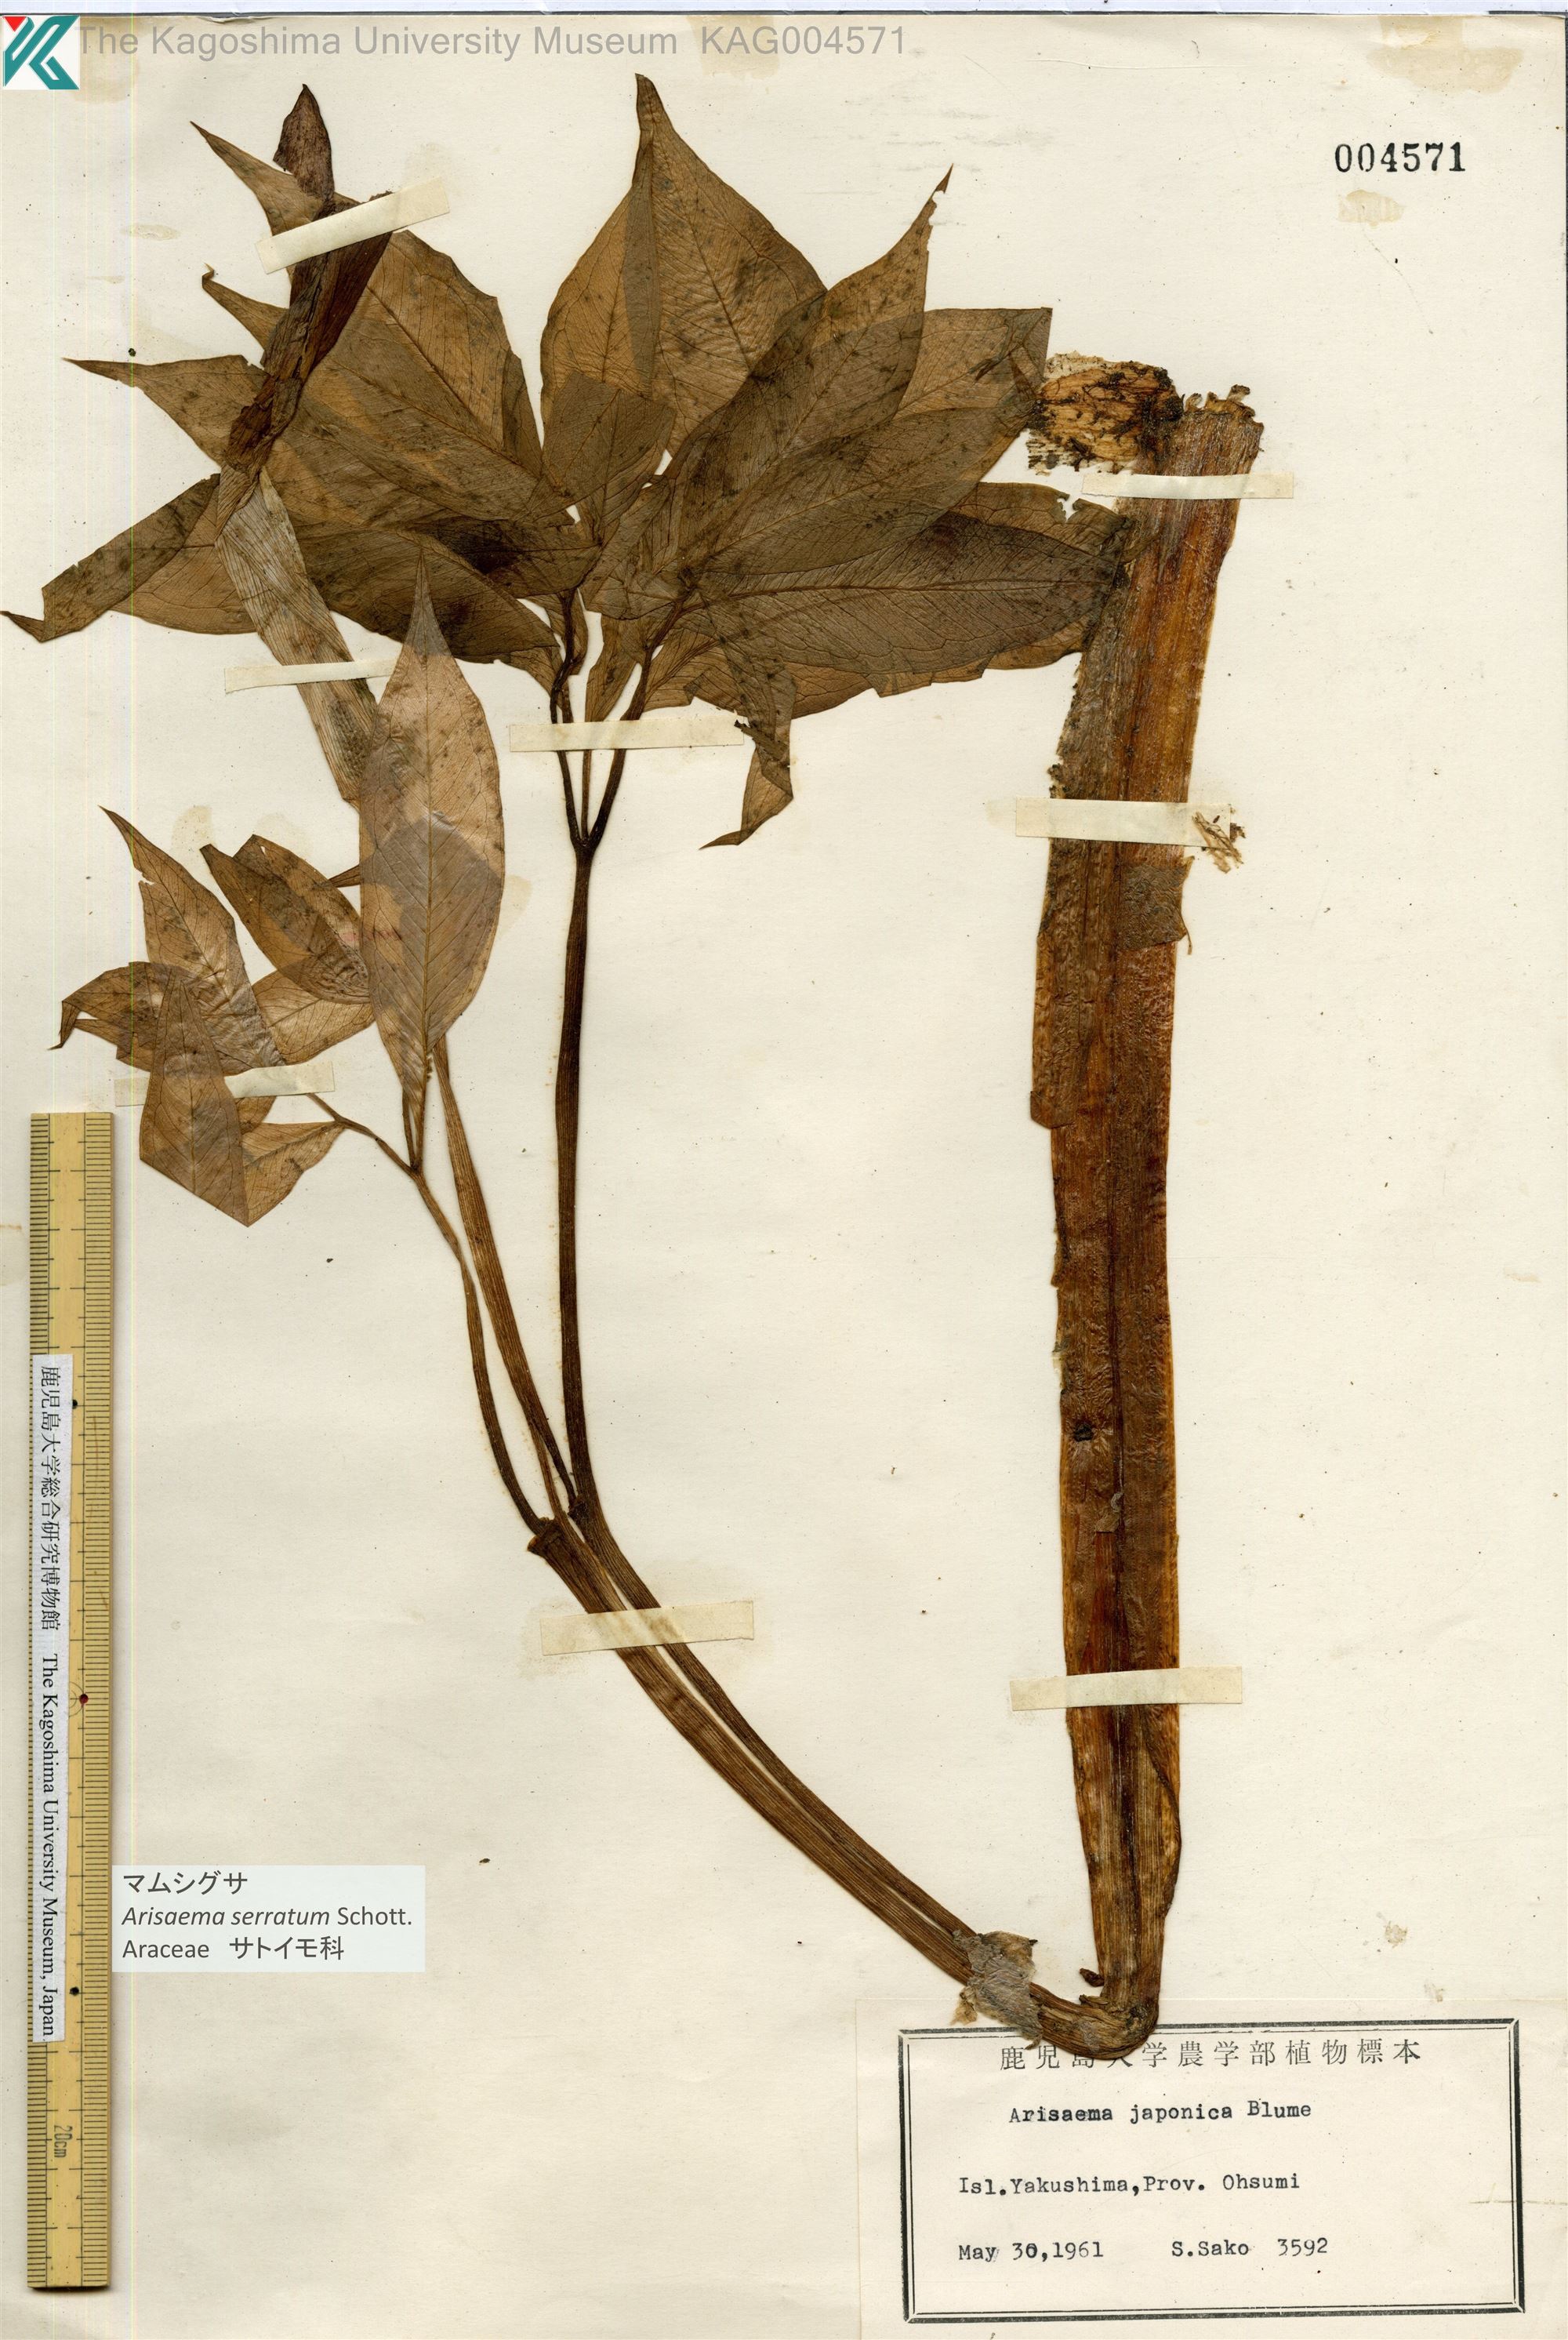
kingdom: Plantae
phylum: Tracheophyta
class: Liliopsida
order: Alismatales
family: Araceae
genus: Arisaema
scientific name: Arisaema serratum
